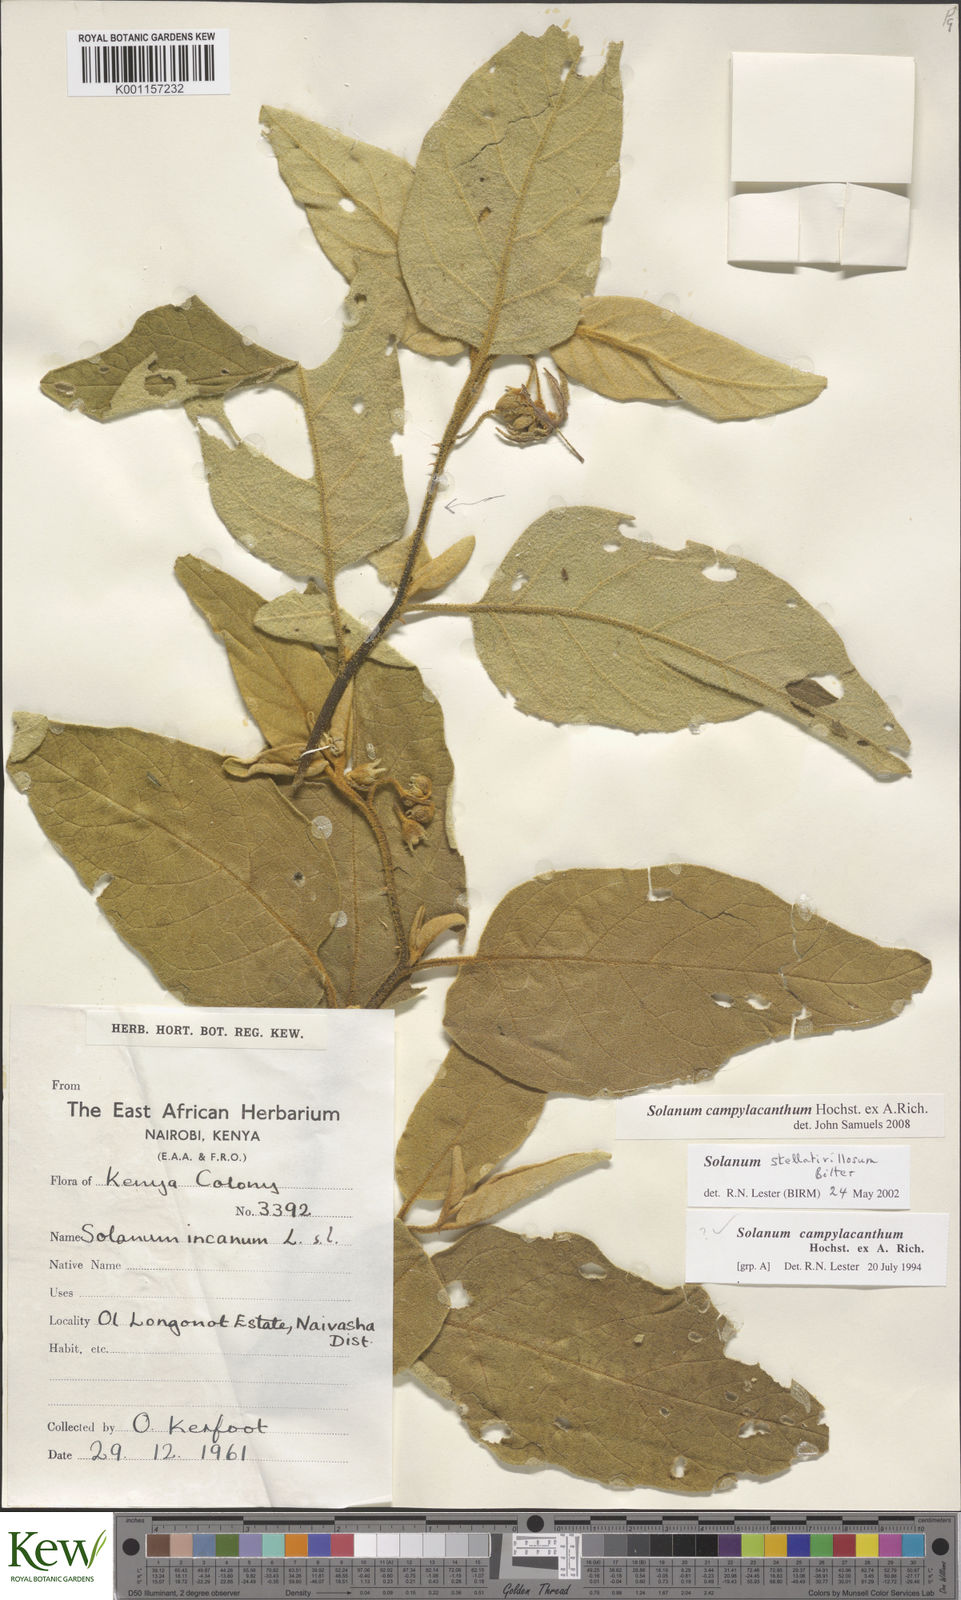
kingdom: Plantae
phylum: Tracheophyta
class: Magnoliopsida
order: Solanales
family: Solanaceae
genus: Solanum
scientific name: Solanum campylacanthum
